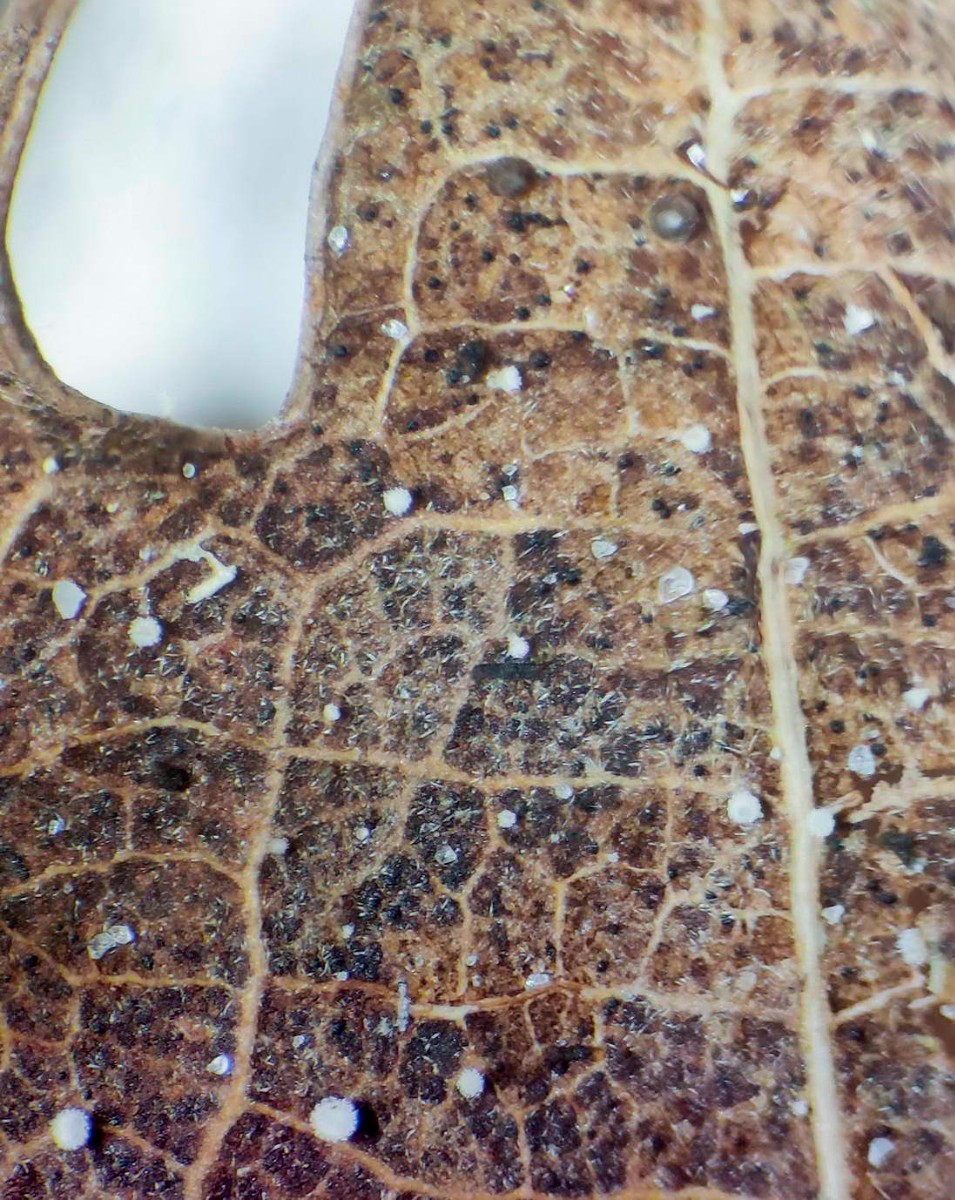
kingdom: Fungi
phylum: Ascomycota
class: Leotiomycetes
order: Helotiales
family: Lachnaceae
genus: Lachnum
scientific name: Lachnum rhytismatis
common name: blad-frynseskive
